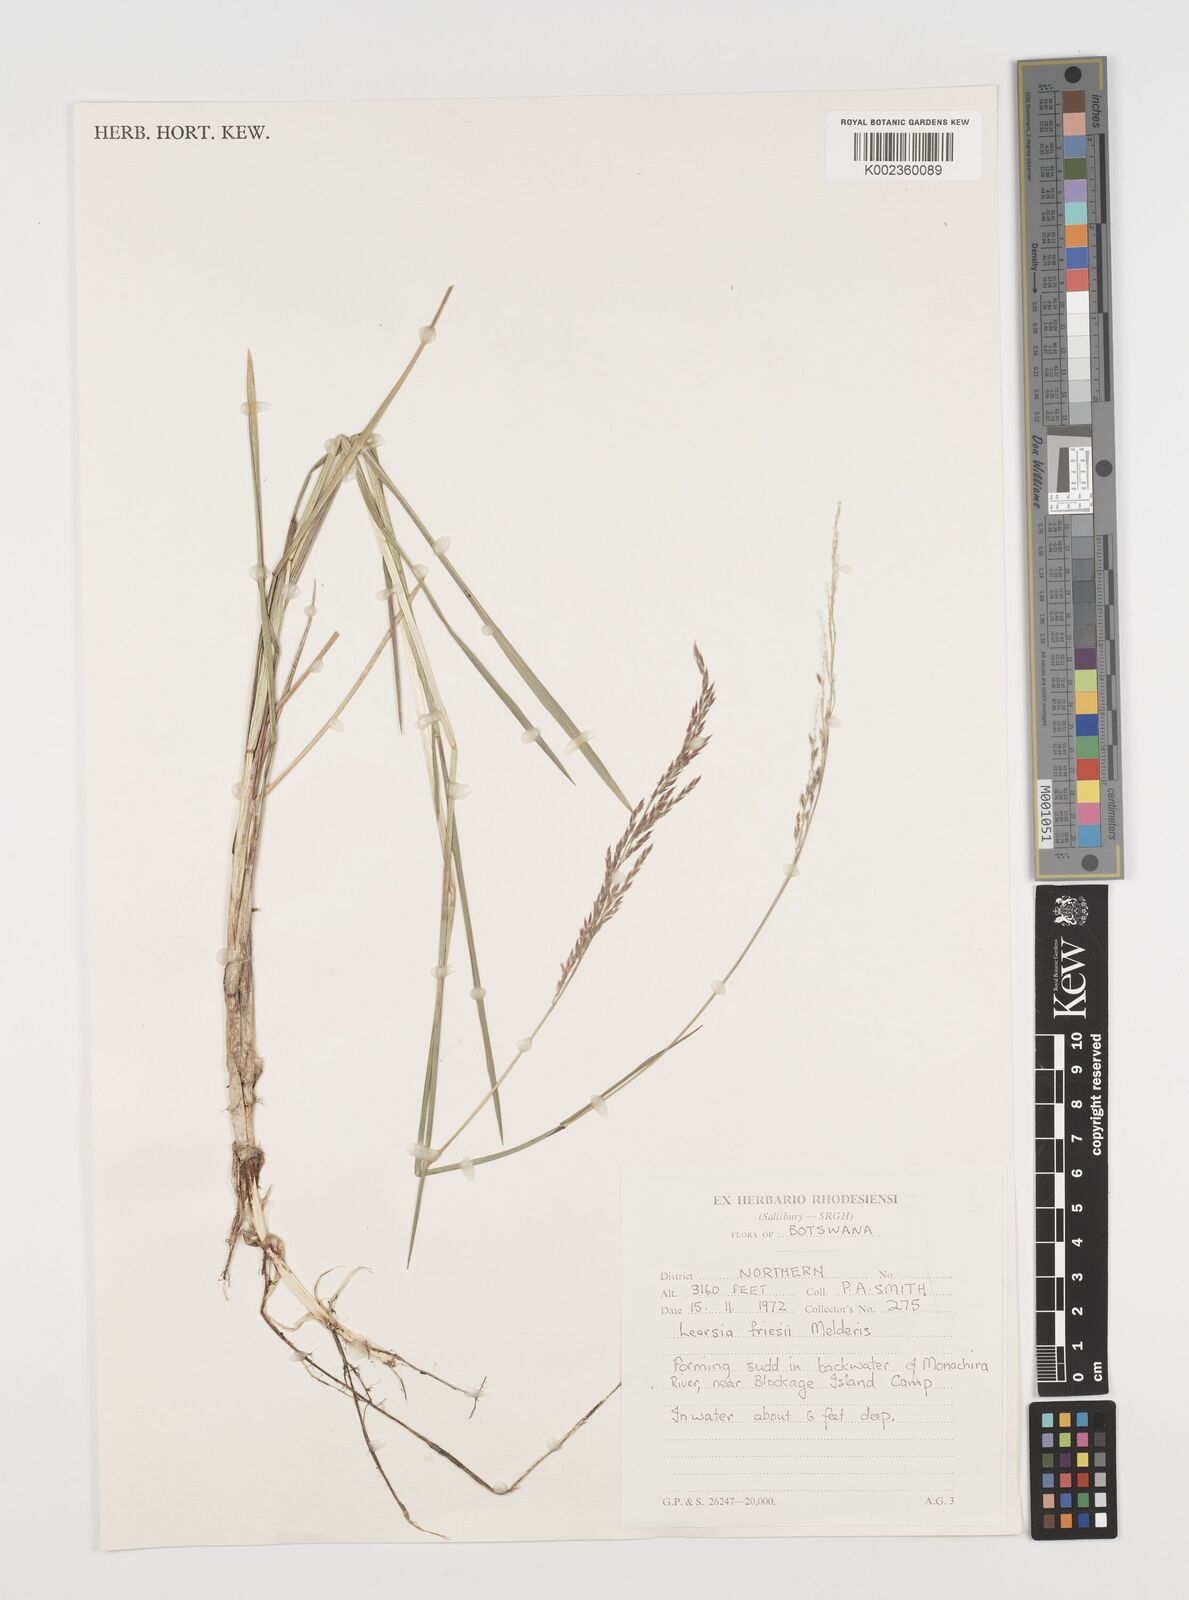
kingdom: Plantae
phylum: Tracheophyta
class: Liliopsida
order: Poales
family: Poaceae
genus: Leersia
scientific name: Leersia friesii
